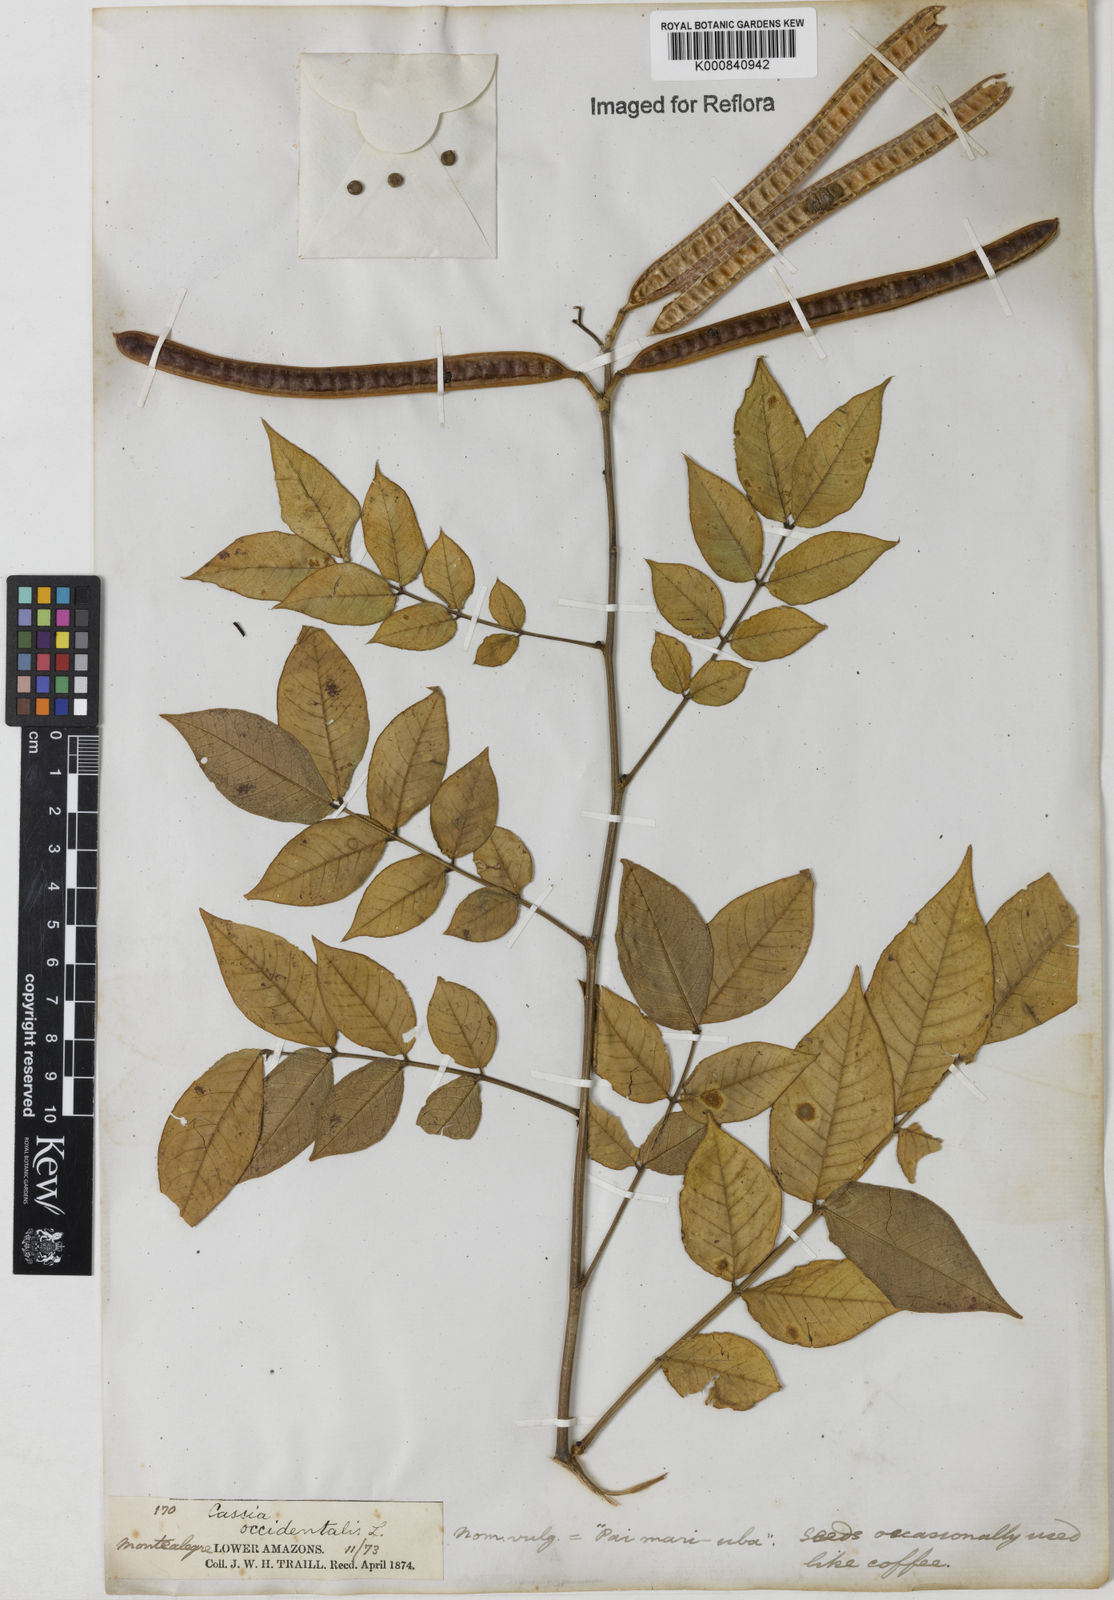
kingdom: Plantae
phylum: Tracheophyta
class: Magnoliopsida
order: Fabales
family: Fabaceae
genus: Senna
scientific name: Senna occidentalis
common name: Septicweed
